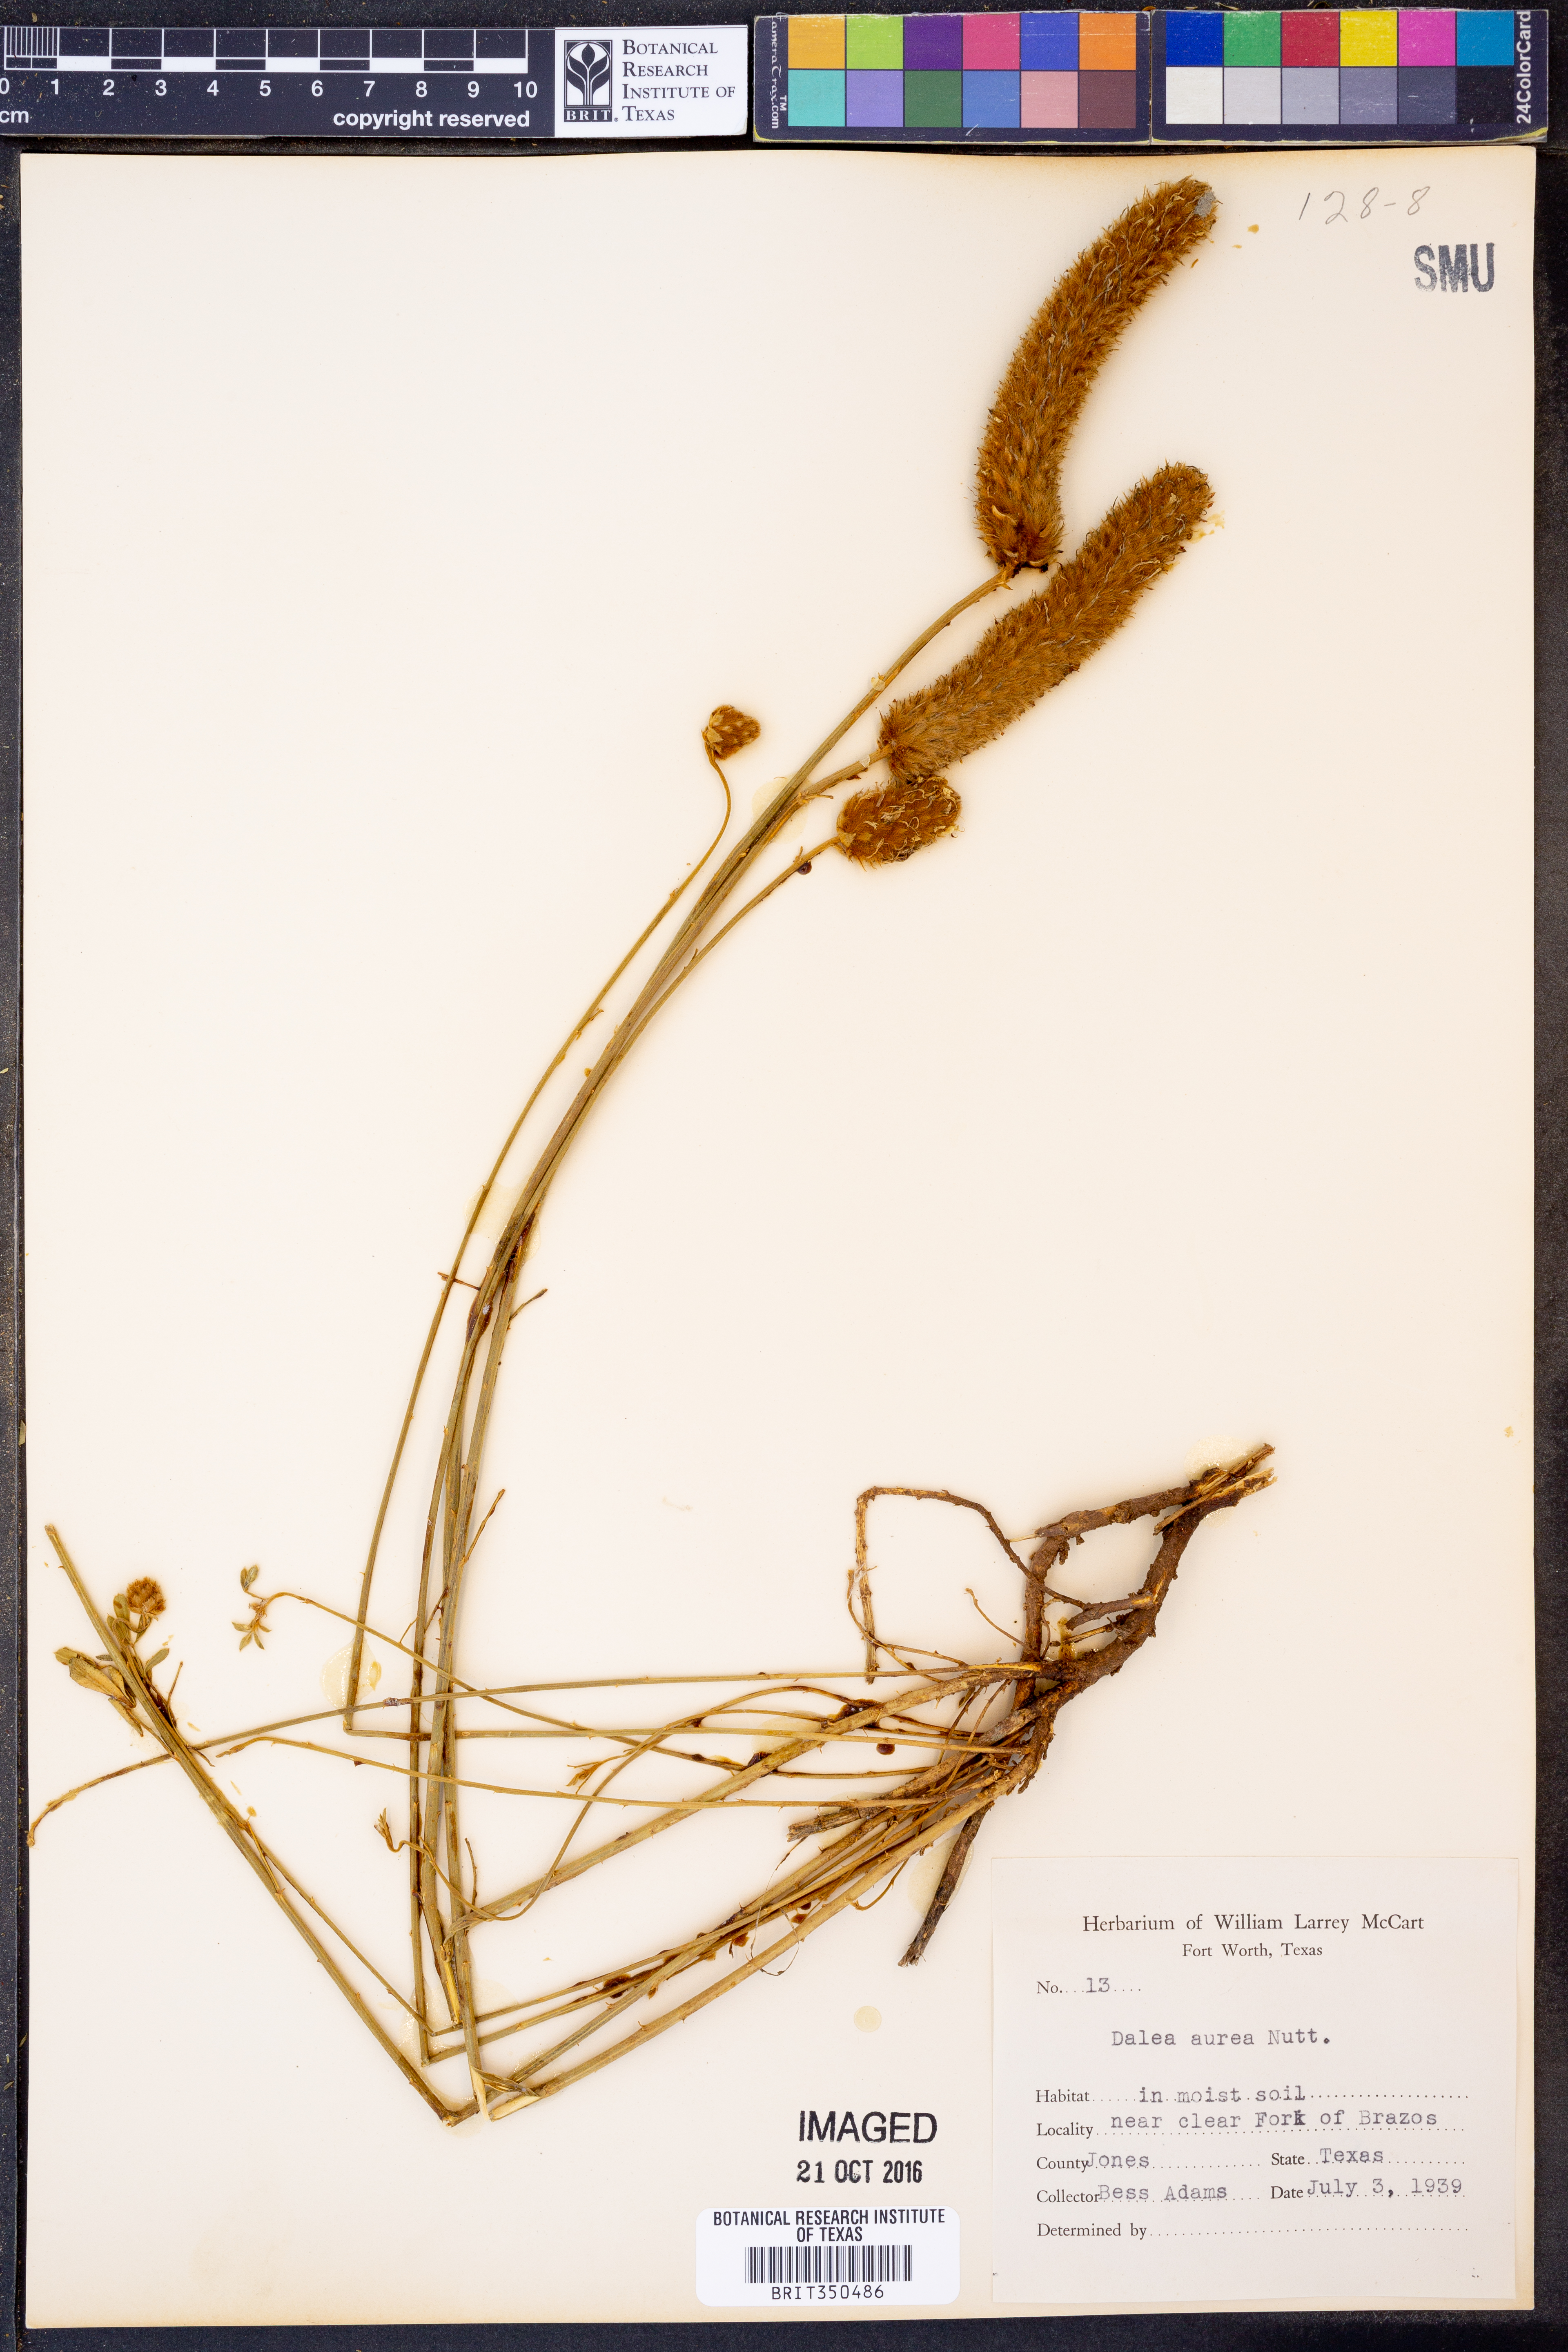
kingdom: Plantae
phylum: Tracheophyta
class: Magnoliopsida
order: Fabales
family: Fabaceae
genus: Dalea
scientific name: Dalea aurea
